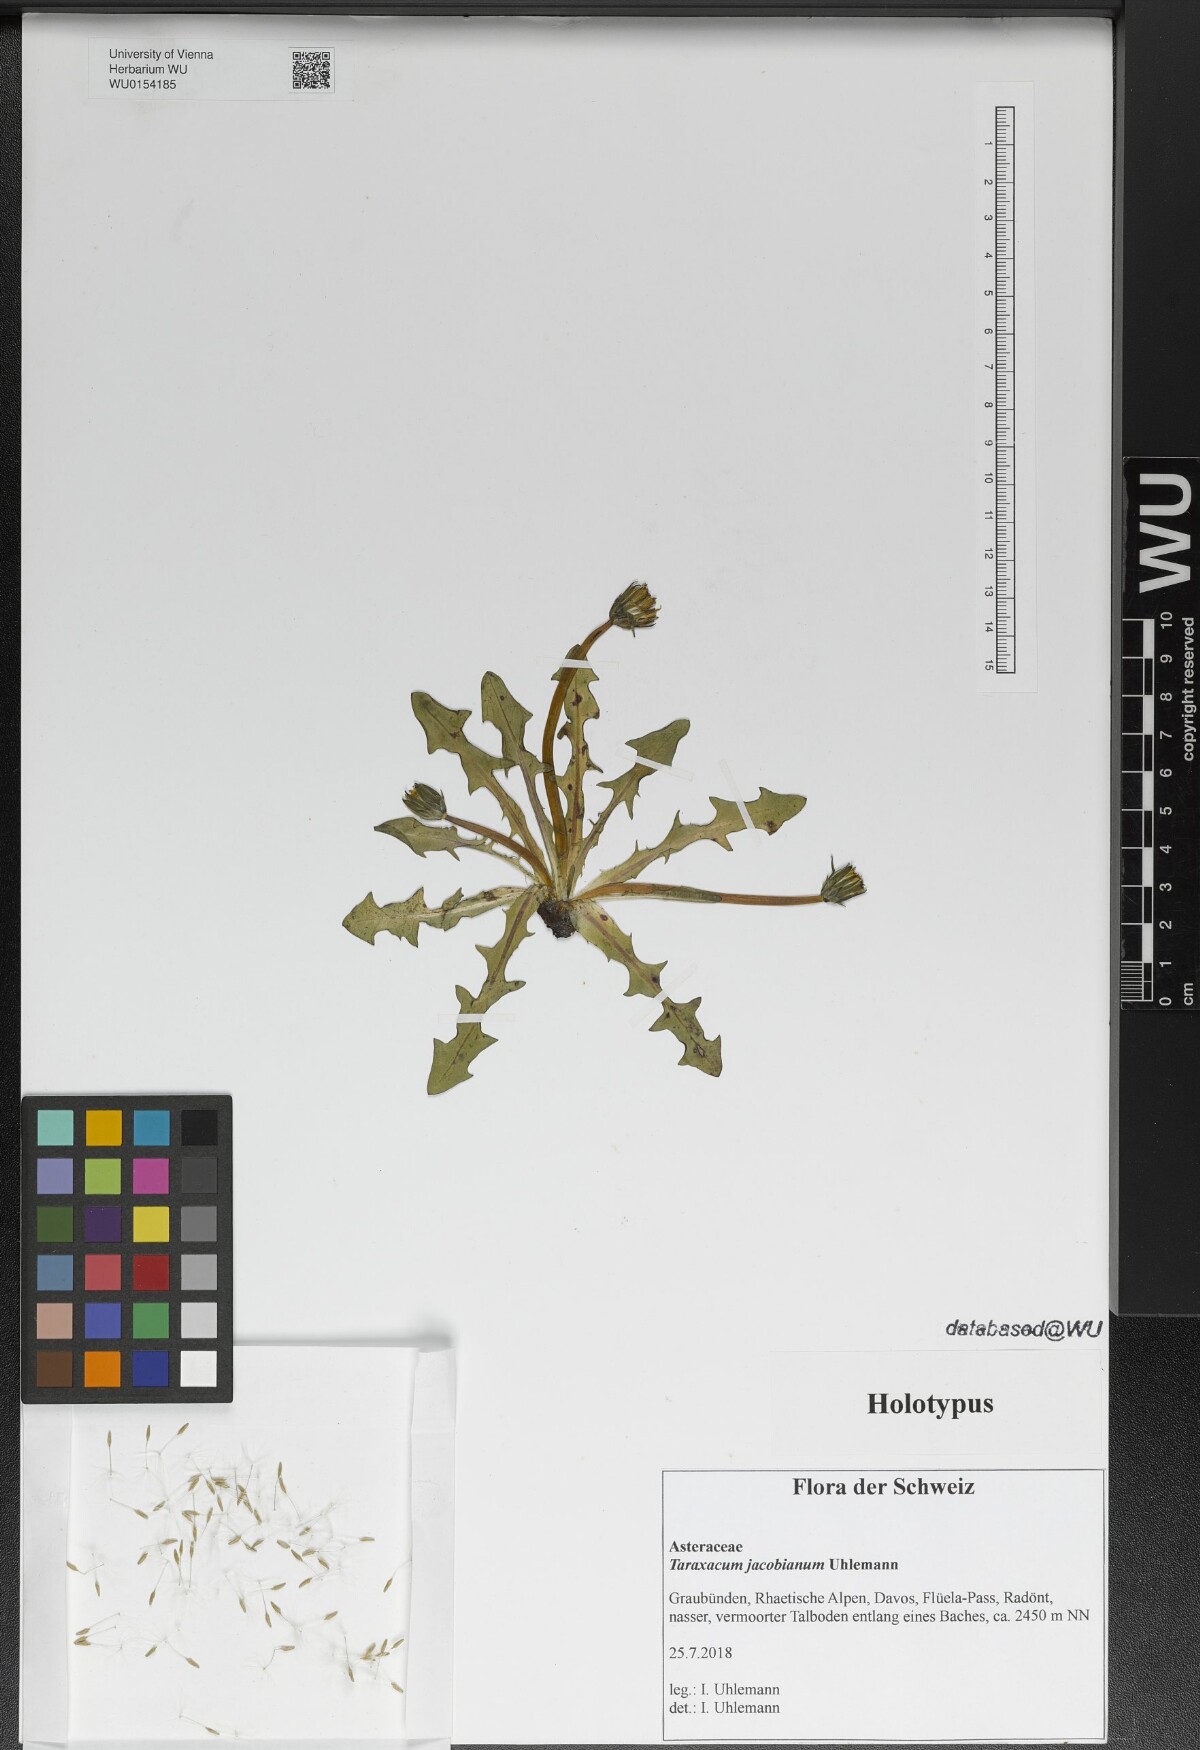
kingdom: Plantae
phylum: Tracheophyta
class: Magnoliopsida
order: Asterales
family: Asteraceae
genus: Taraxacum
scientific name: Taraxacum
